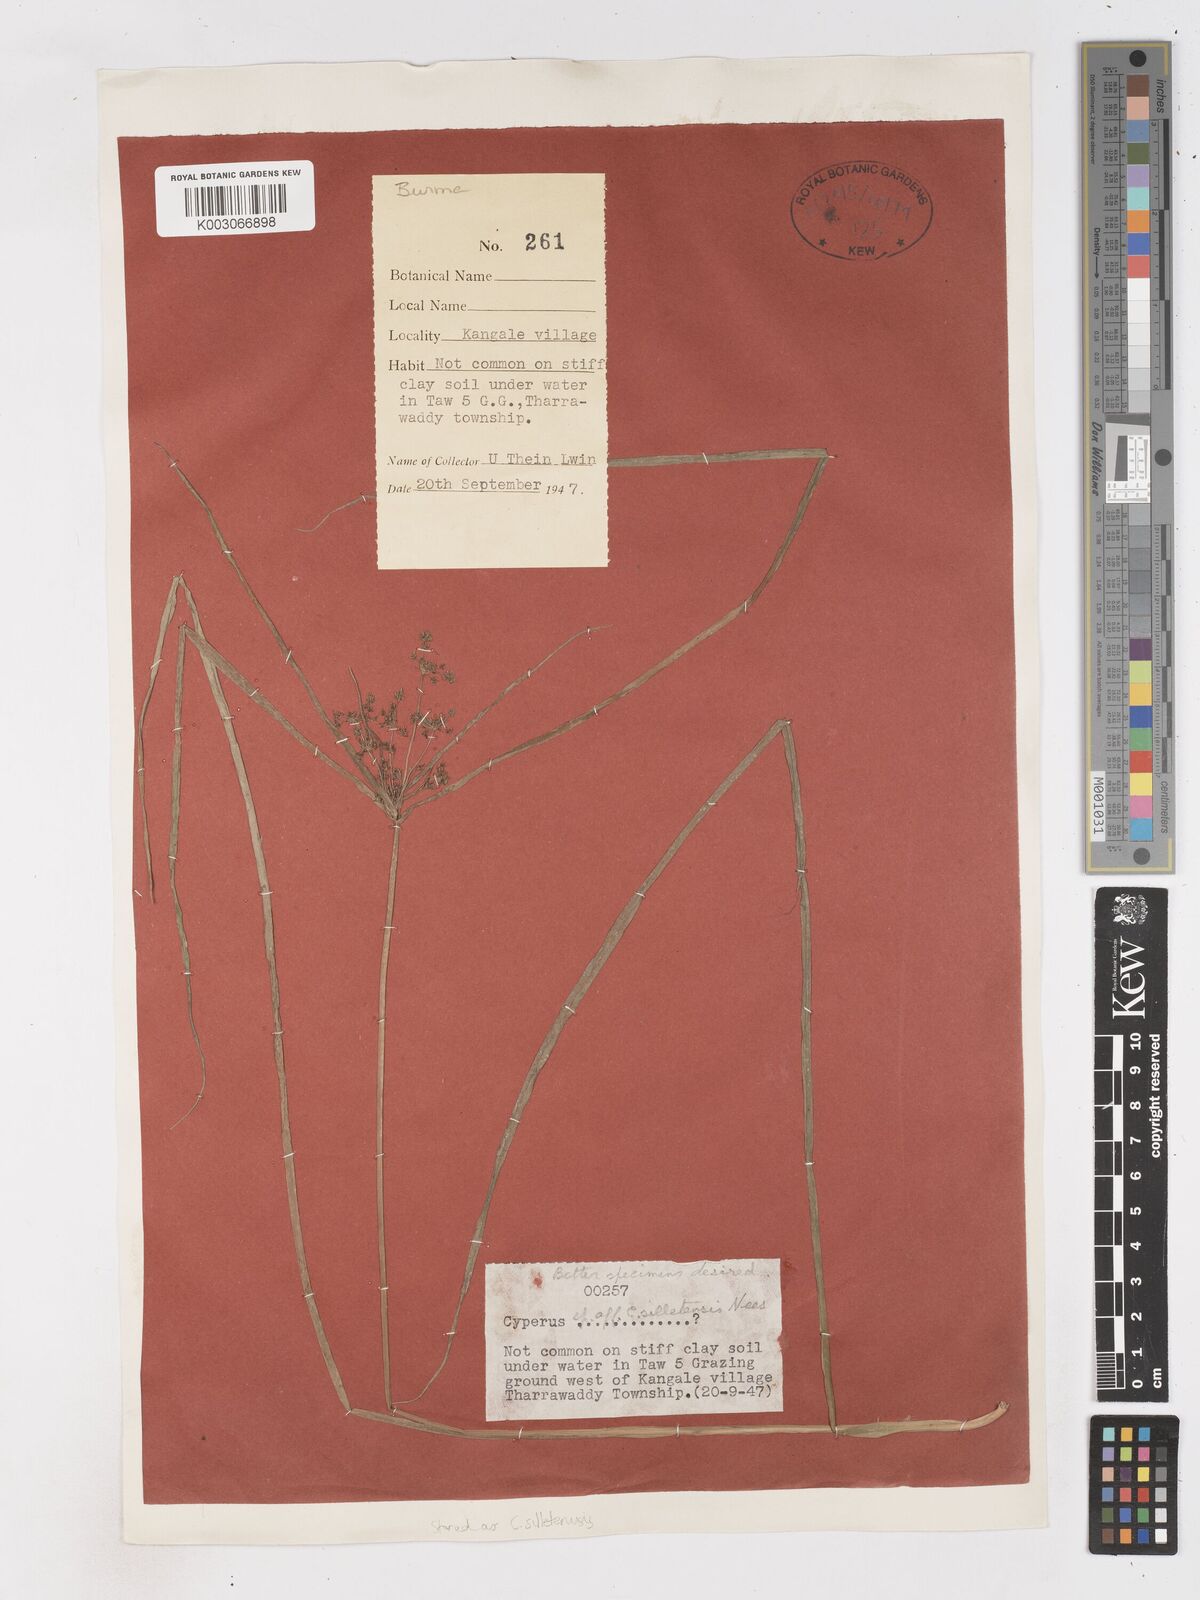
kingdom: Plantae
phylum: Tracheophyta
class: Liliopsida
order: Poales
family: Cyperaceae
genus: Cyperus
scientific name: Cyperus silletensis
